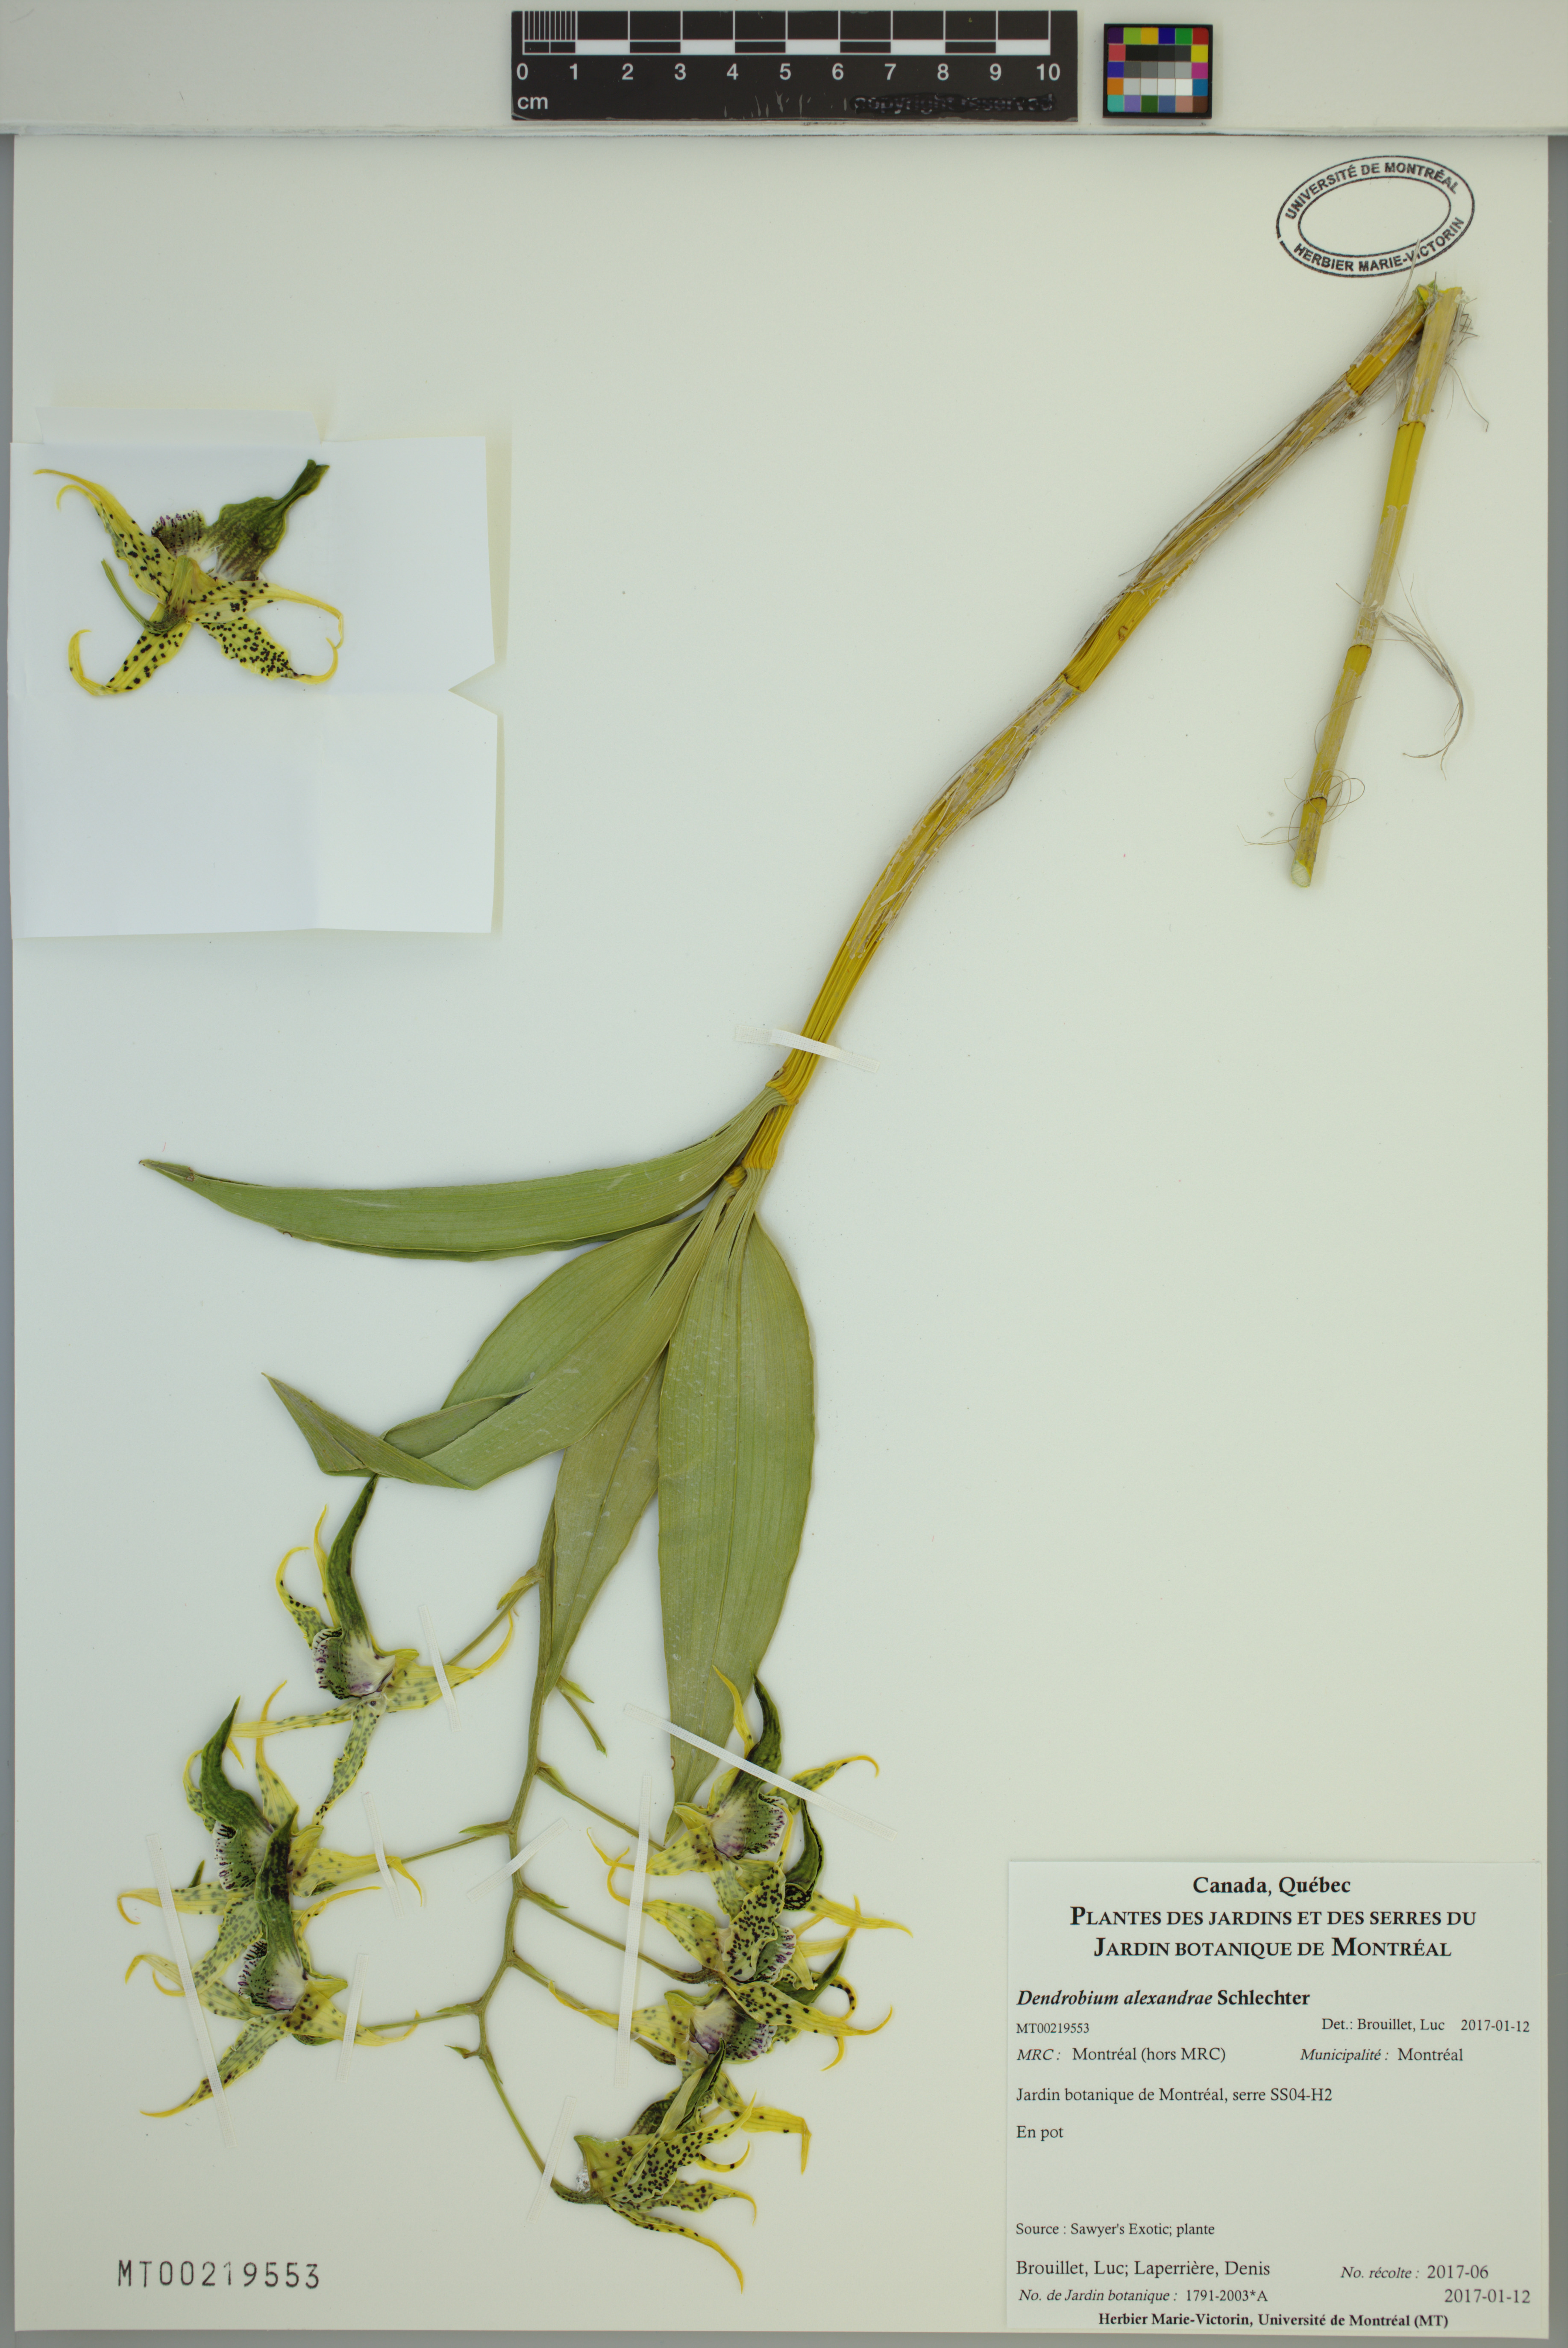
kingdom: Plantae
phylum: Tracheophyta
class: Liliopsida
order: Asparagales
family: Orchidaceae
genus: Dendrobium
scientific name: Dendrobium alexandrae
